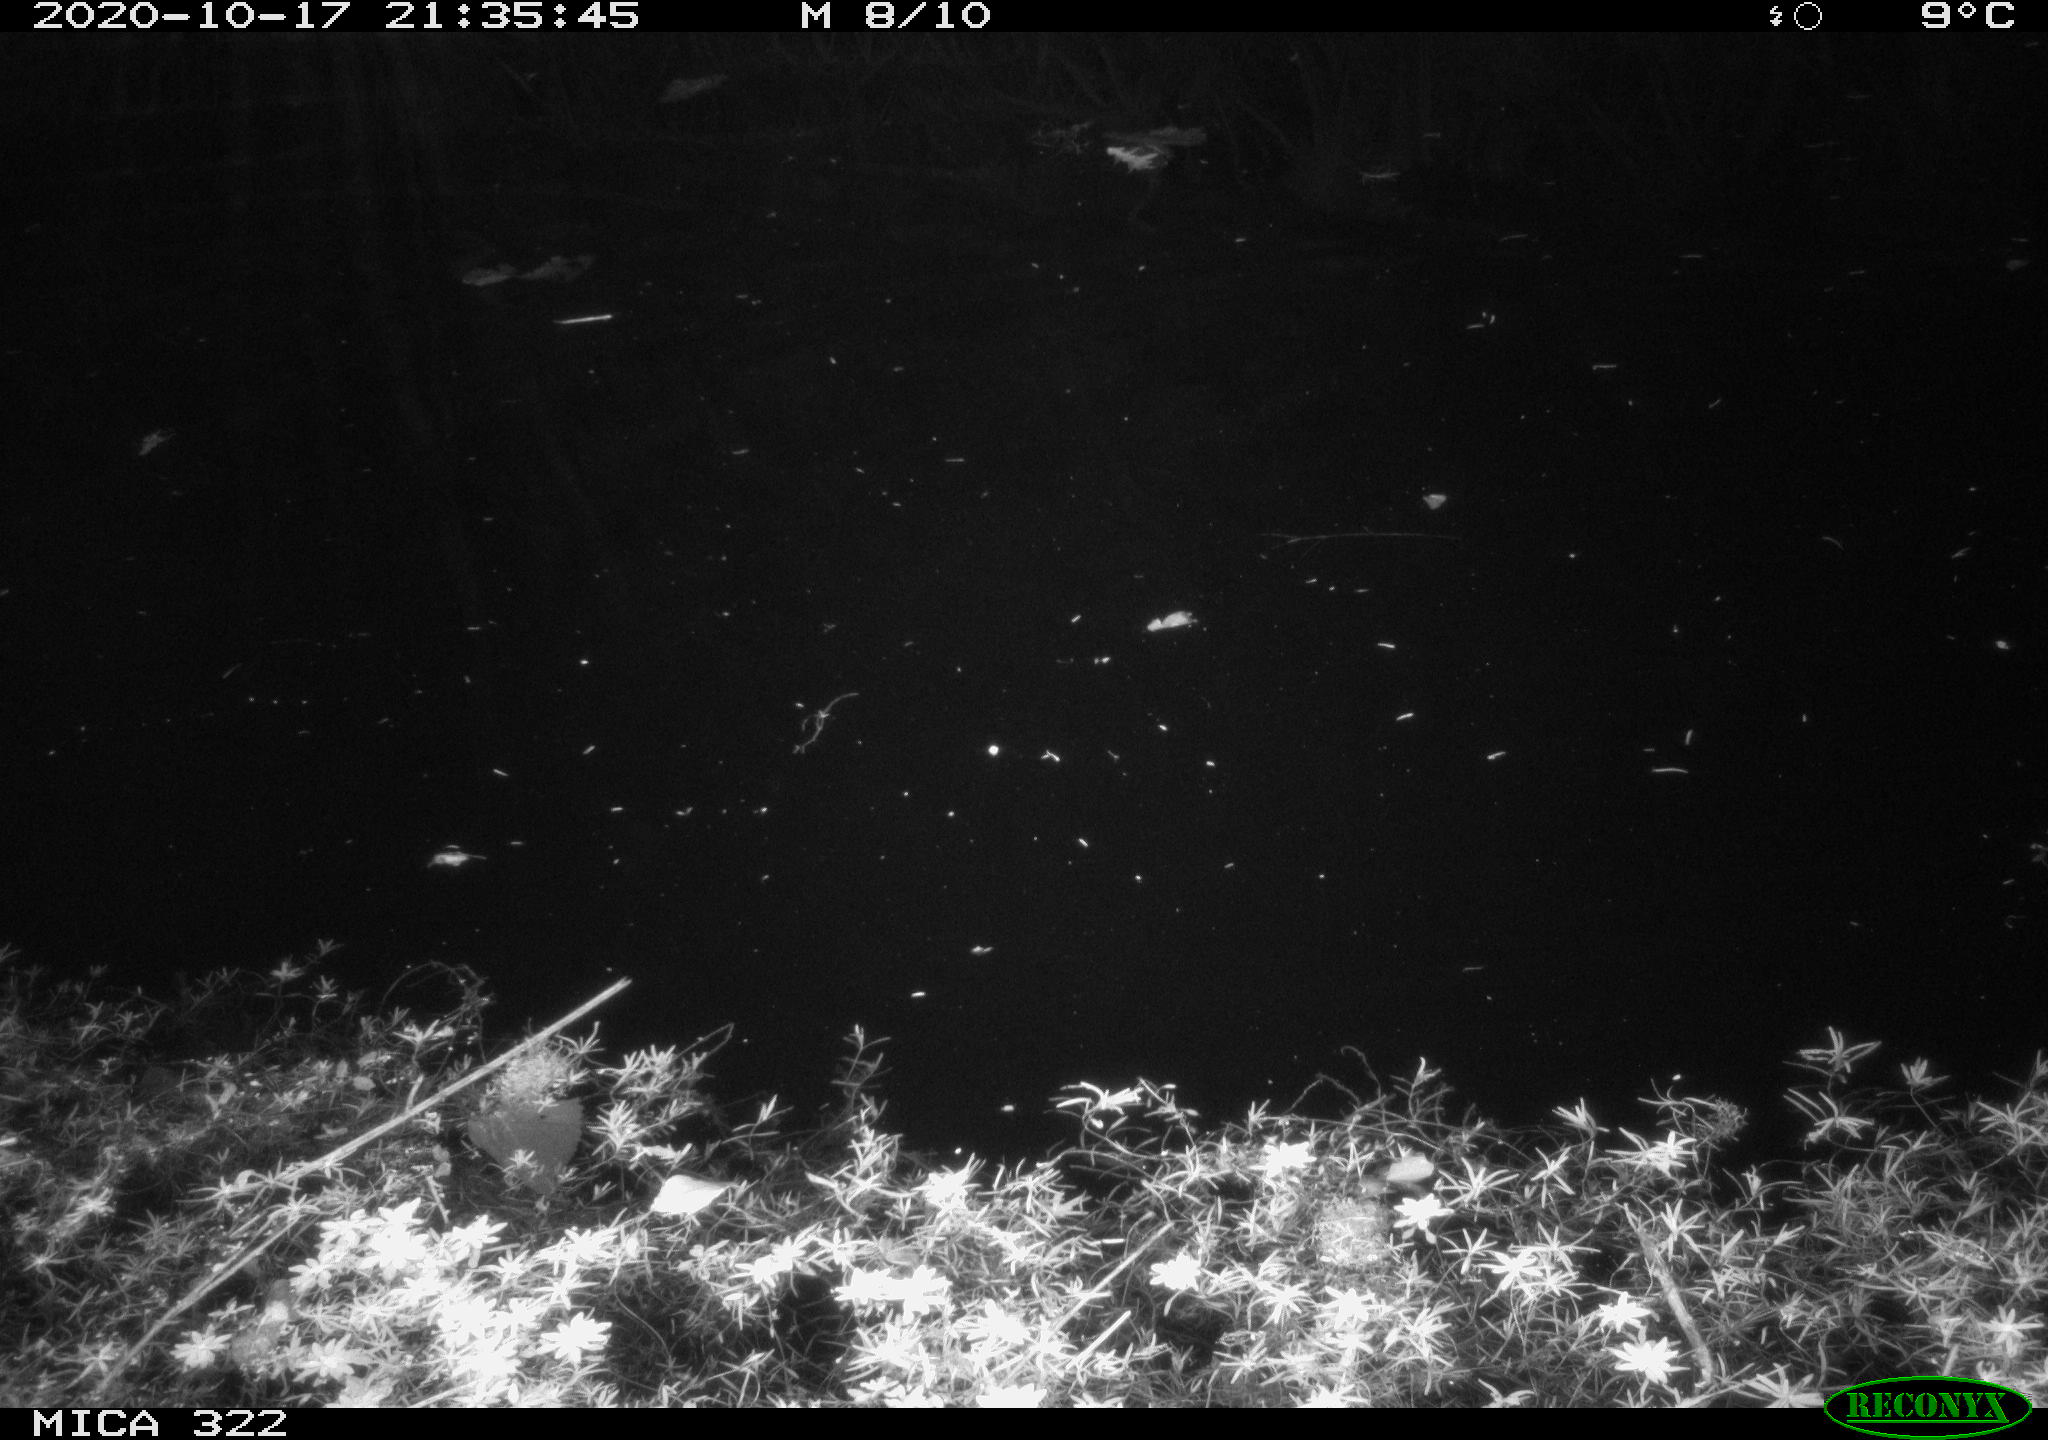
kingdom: Animalia
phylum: Chordata
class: Mammalia
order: Rodentia
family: Muridae
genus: Rattus
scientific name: Rattus norvegicus
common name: Brown rat
